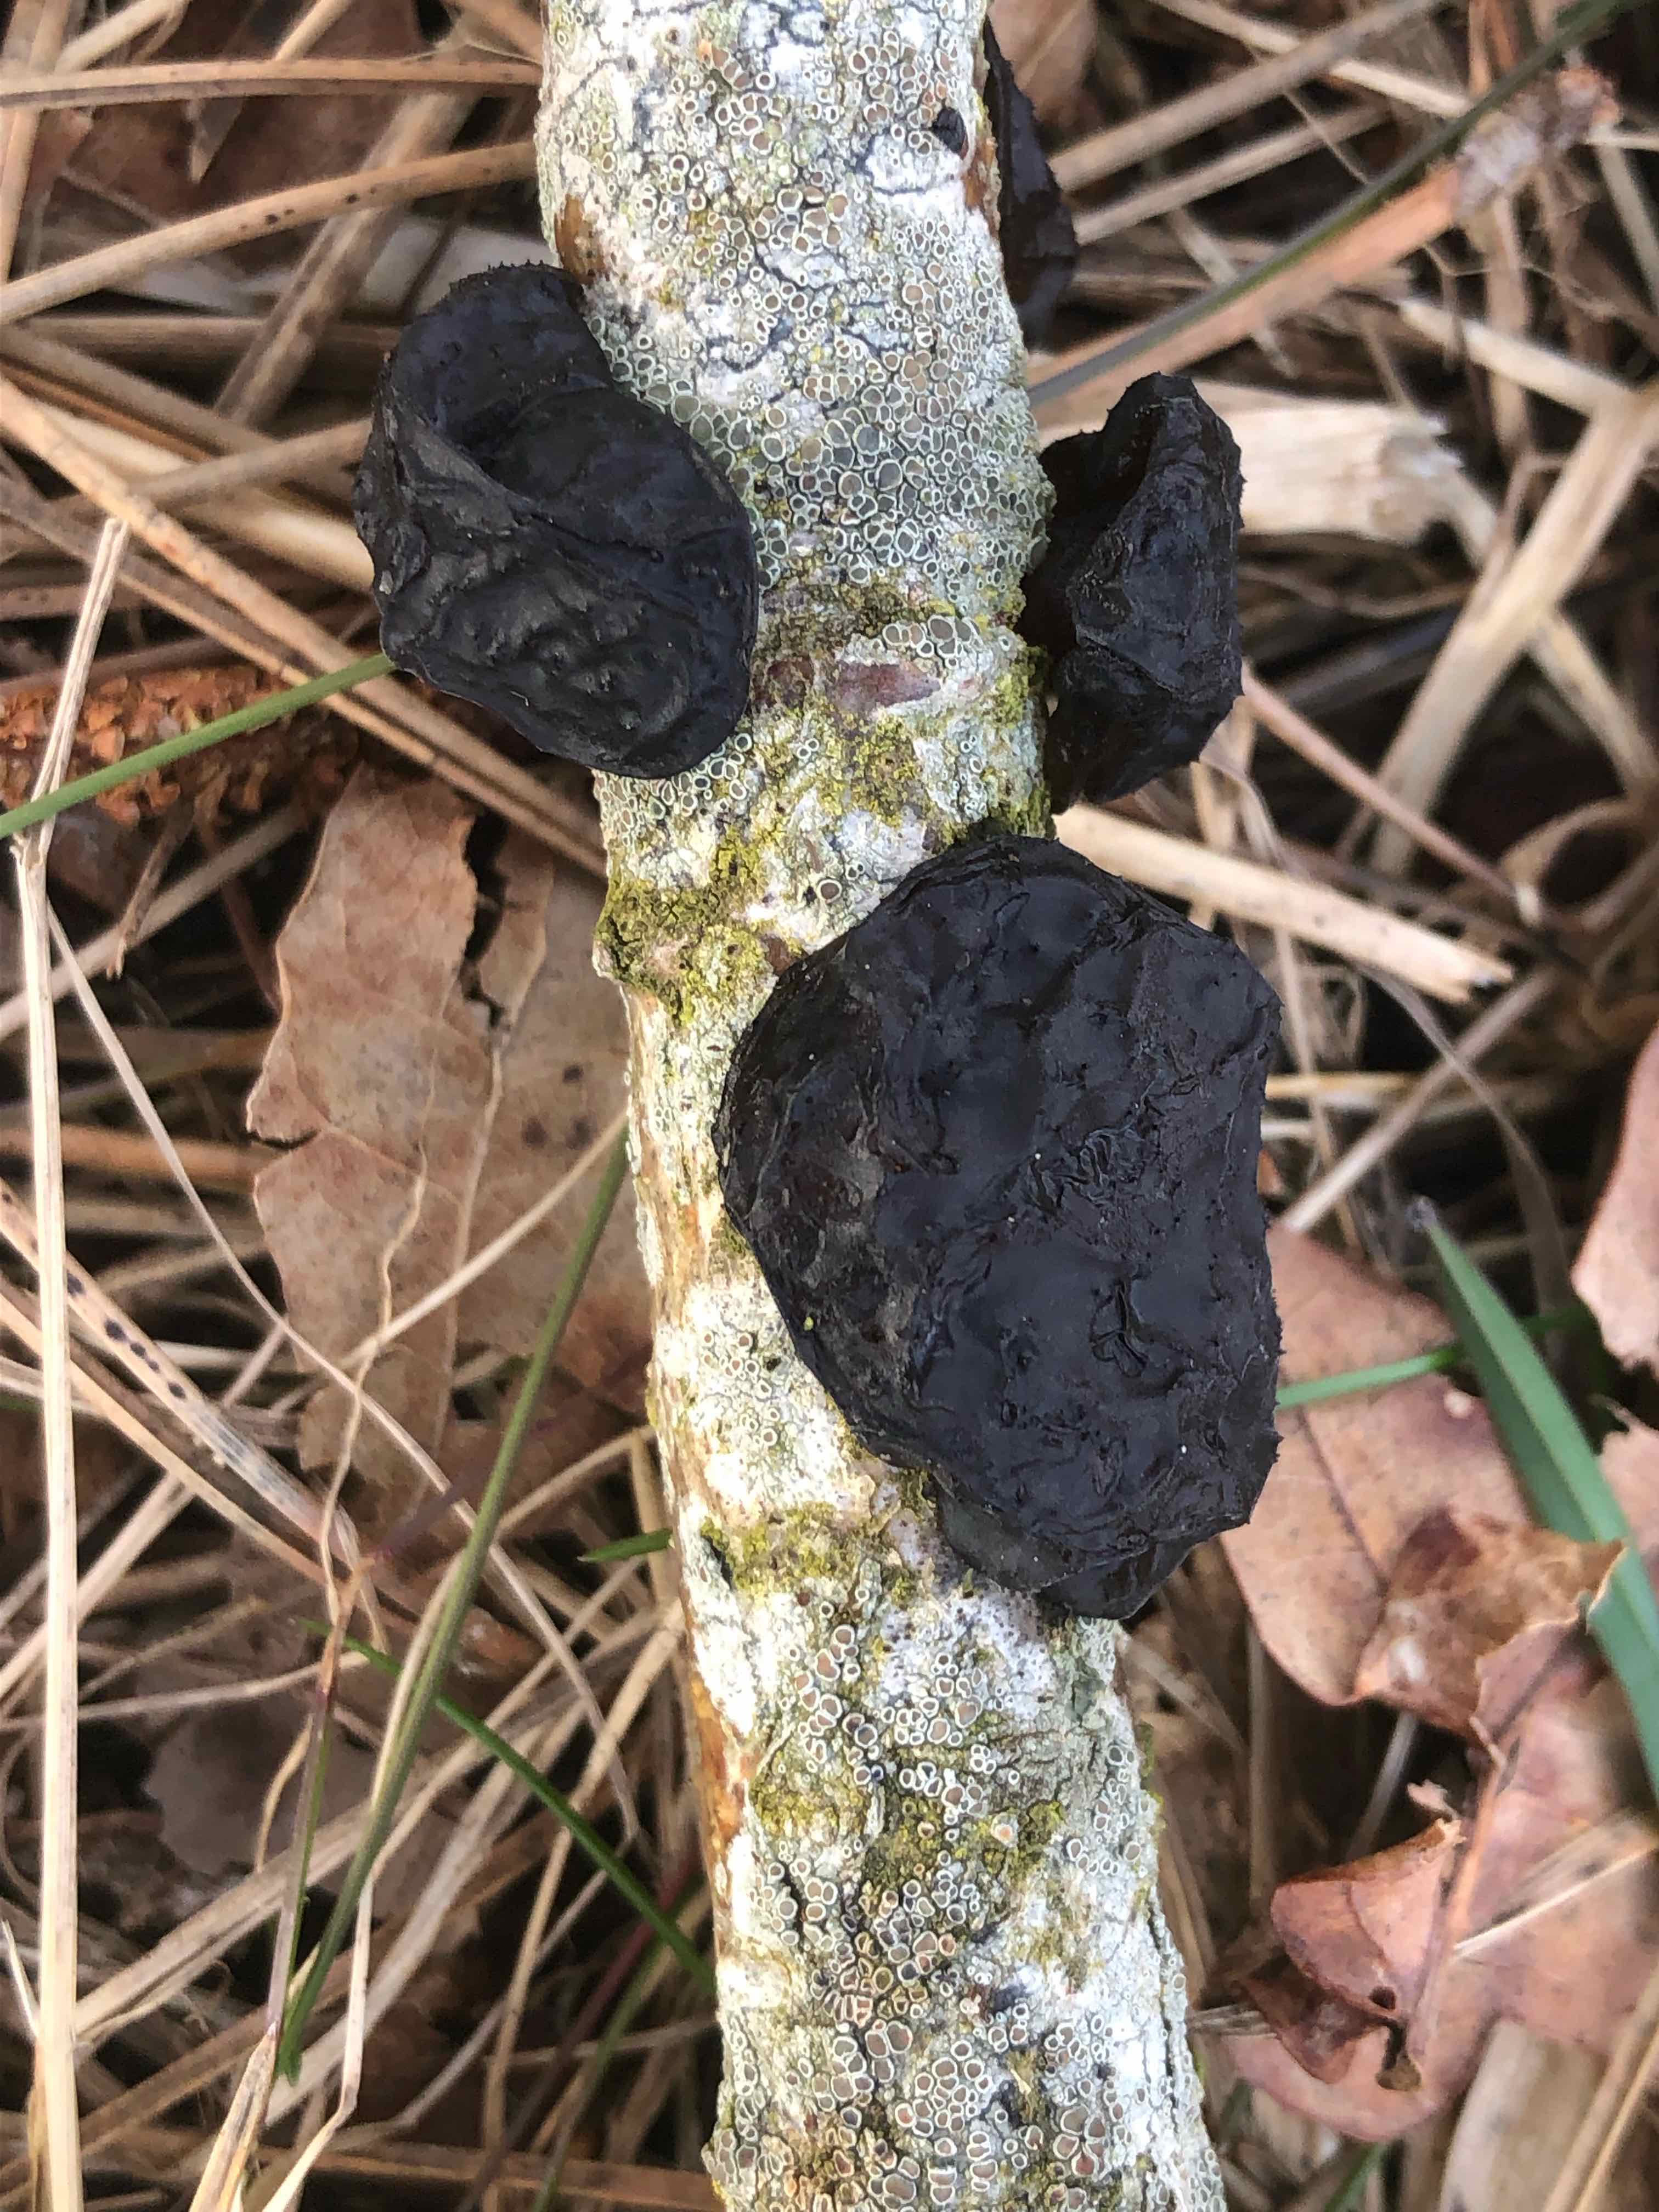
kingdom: Fungi
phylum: Basidiomycota
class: Agaricomycetes
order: Auriculariales
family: Auriculariaceae
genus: Exidia
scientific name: Exidia glandulosa
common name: ege-bævretop
